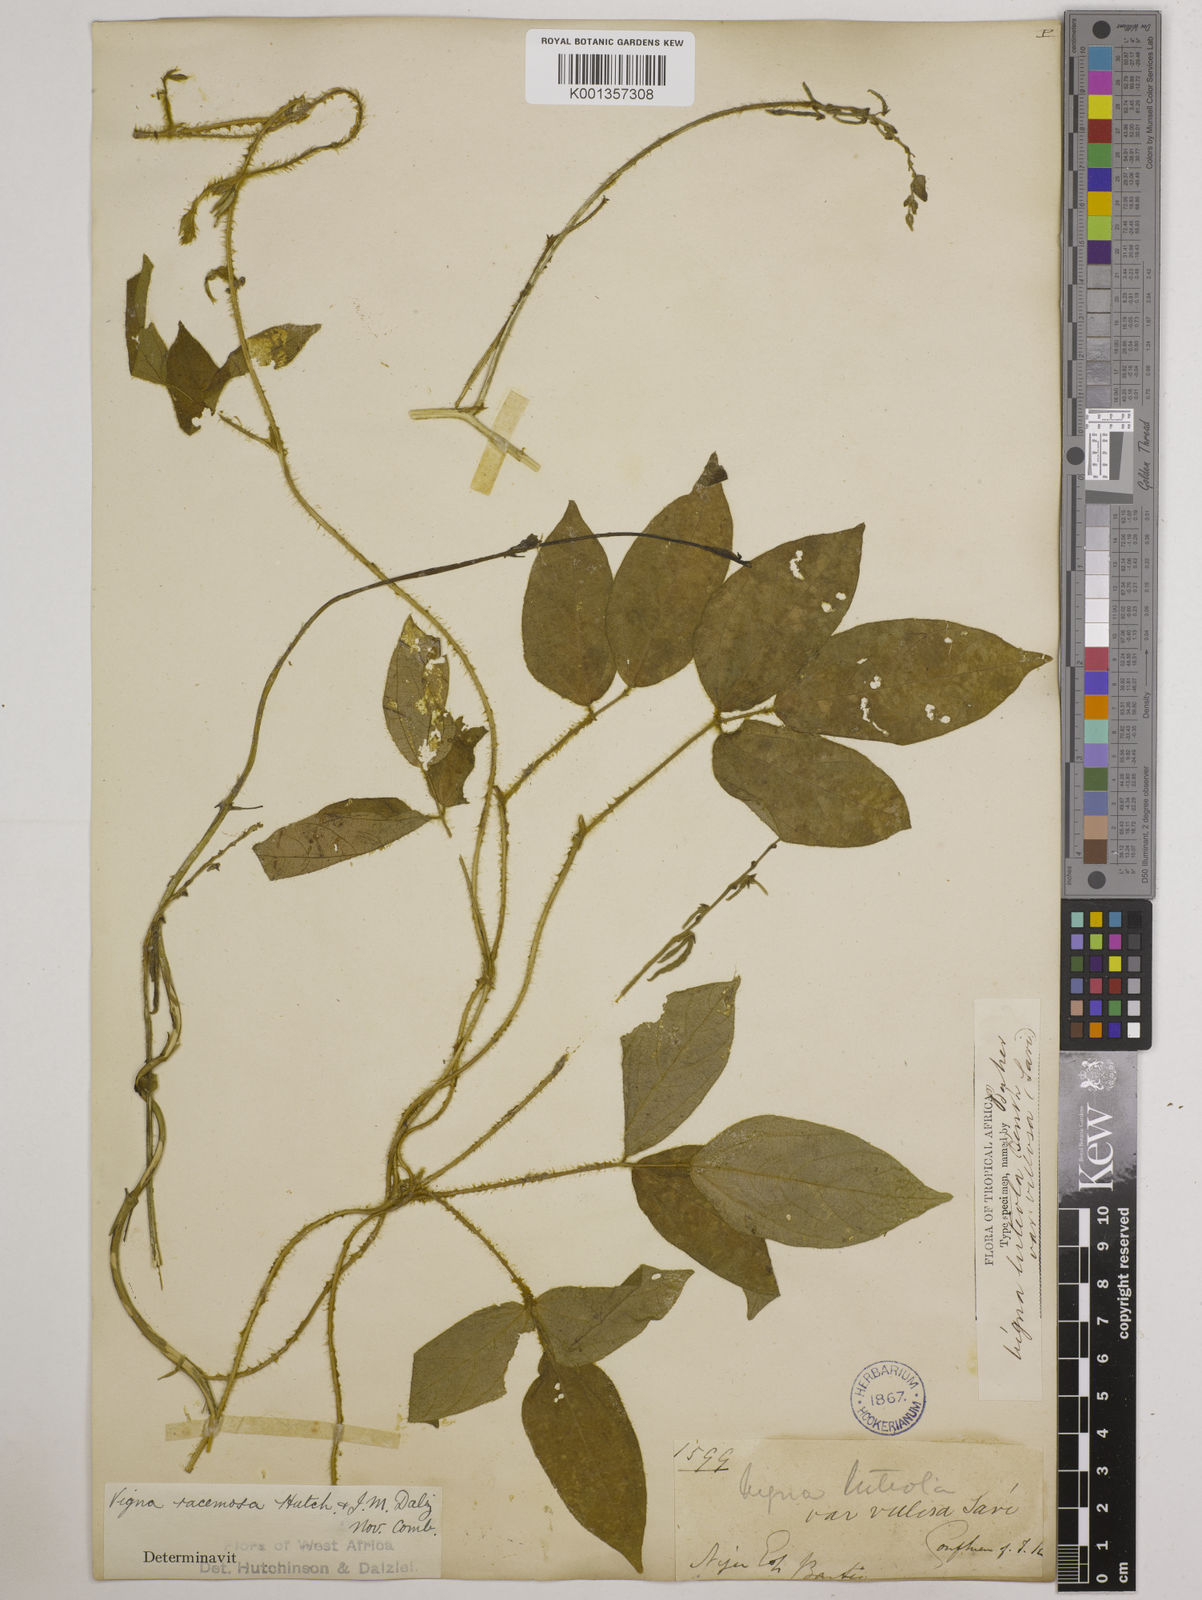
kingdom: Plantae
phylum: Tracheophyta
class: Magnoliopsida
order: Fabales
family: Fabaceae
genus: Vigna
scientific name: Vigna racemosa
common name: Beans not eaten
